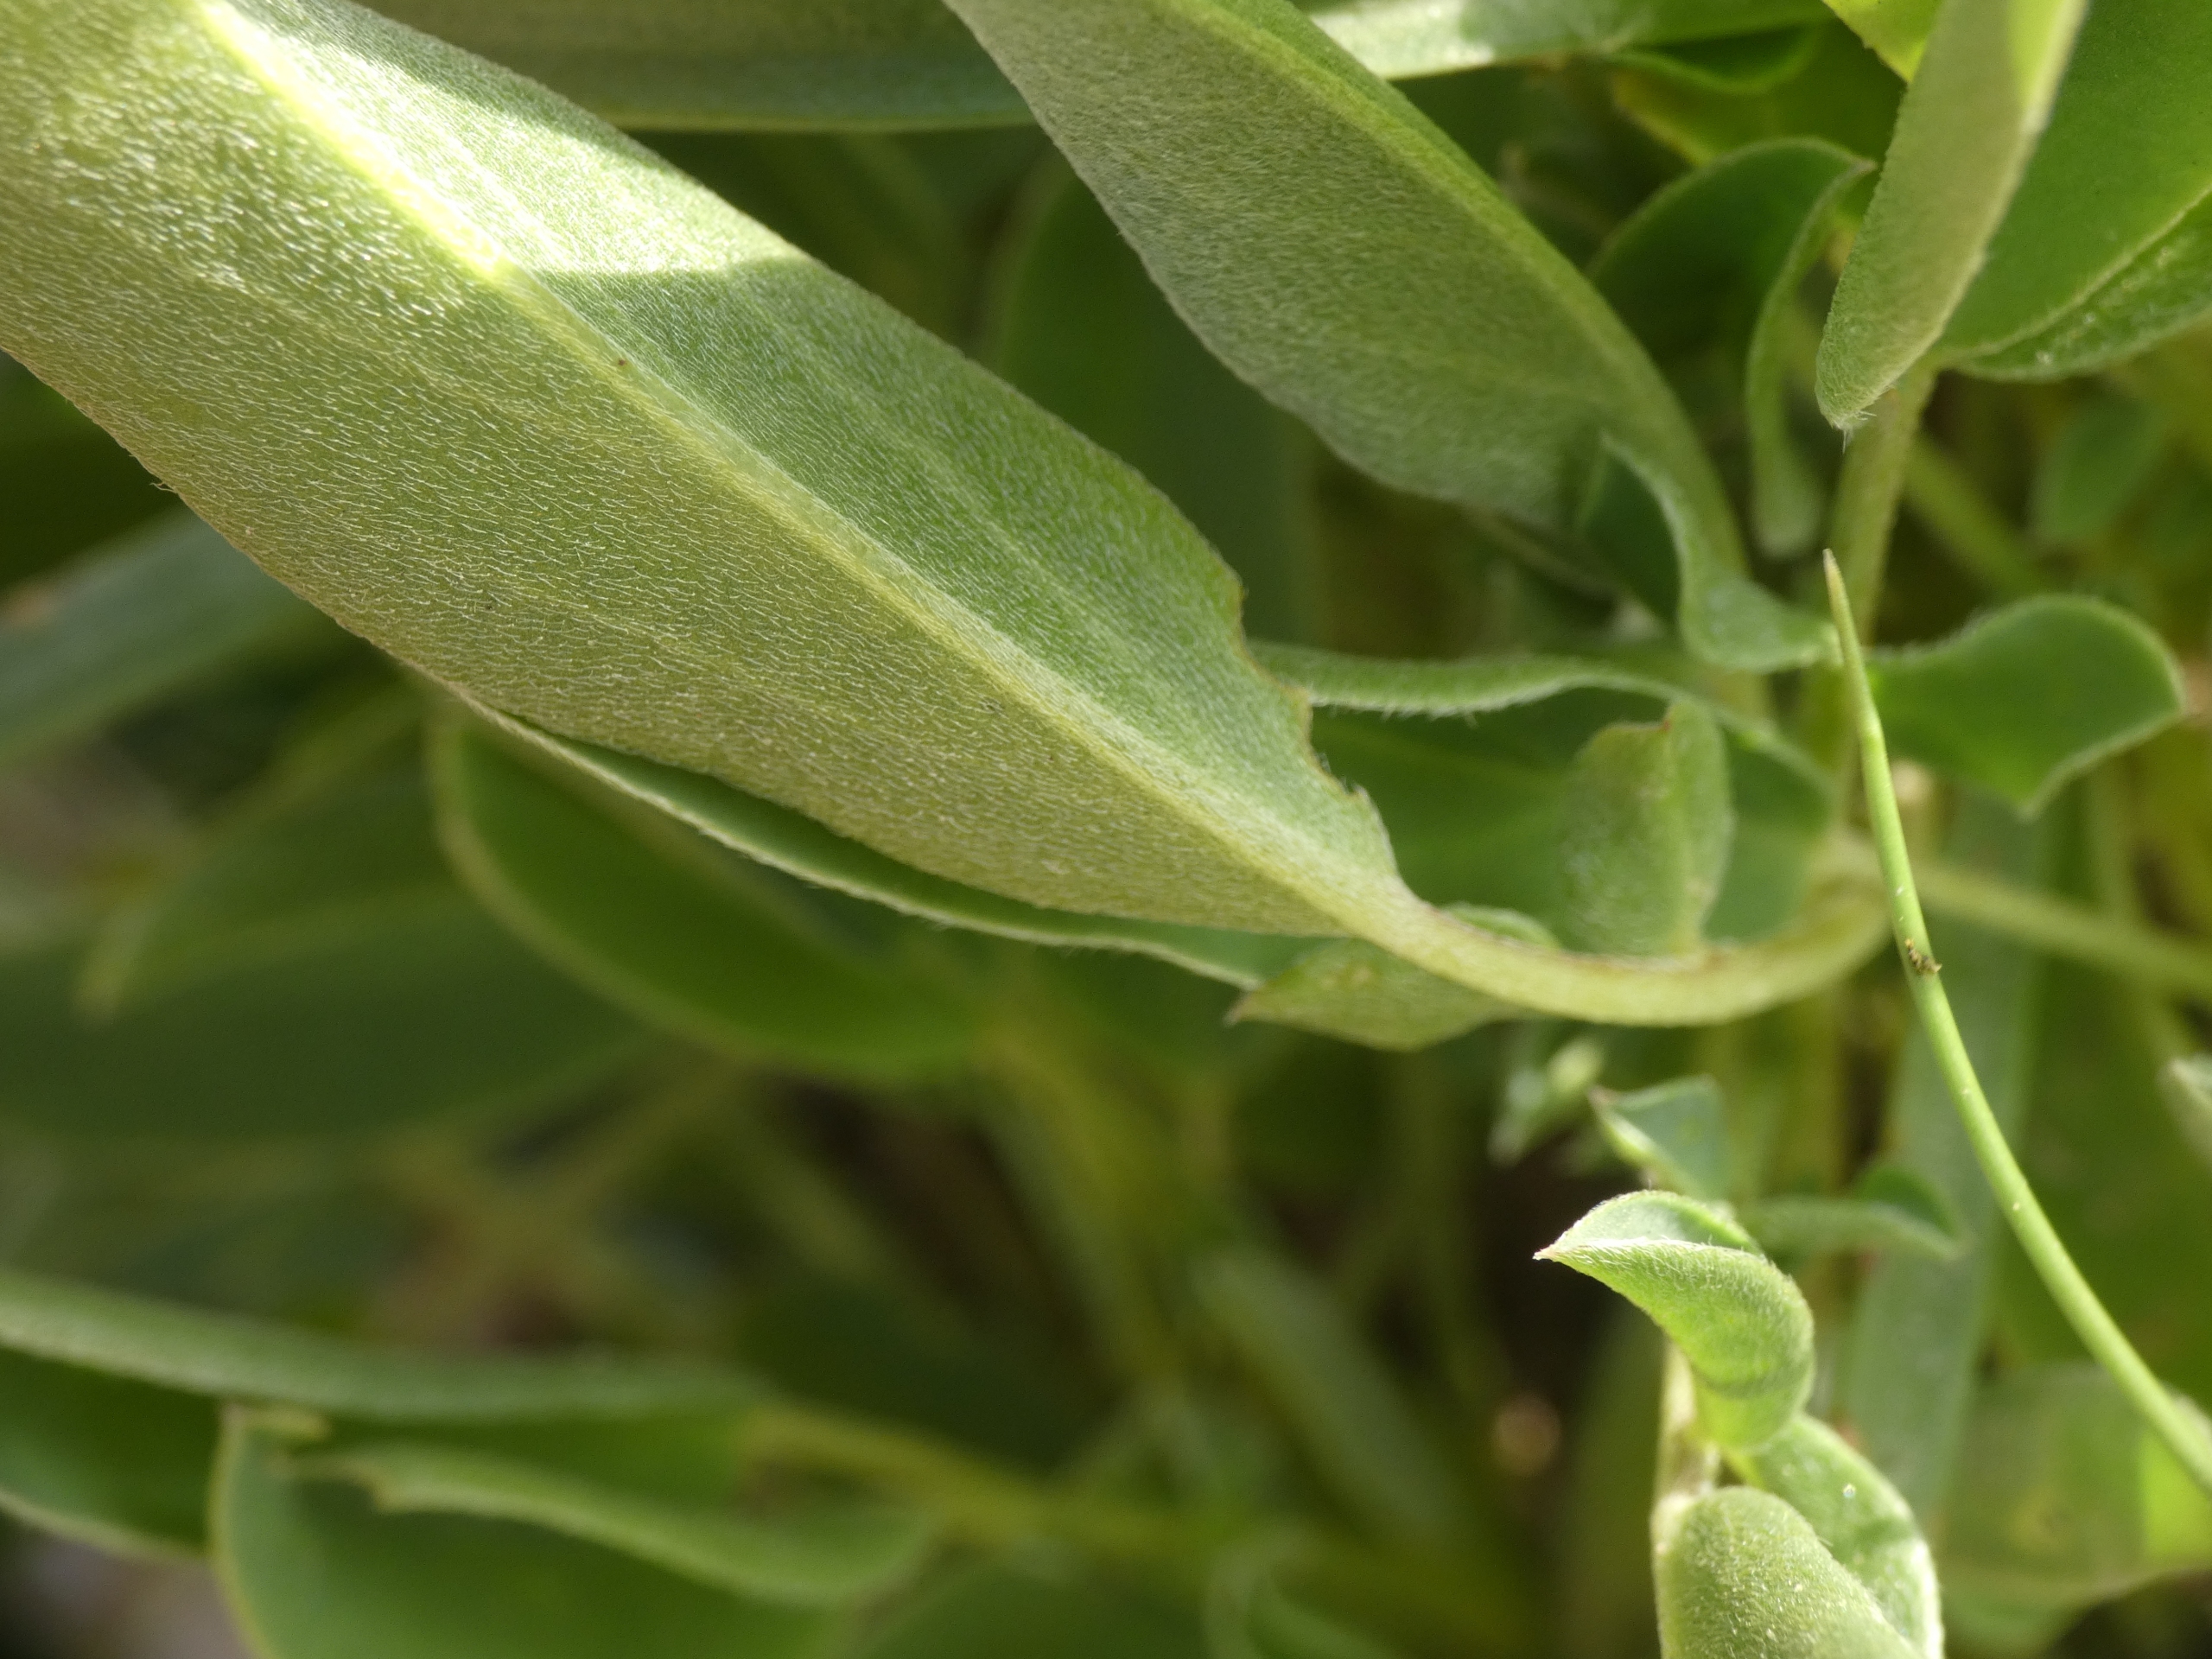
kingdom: Plantae
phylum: Tracheophyta
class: Magnoliopsida
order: Fabales
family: Fabaceae
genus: Anthyllis
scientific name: Anthyllis vulneraria
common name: Rundbælg
